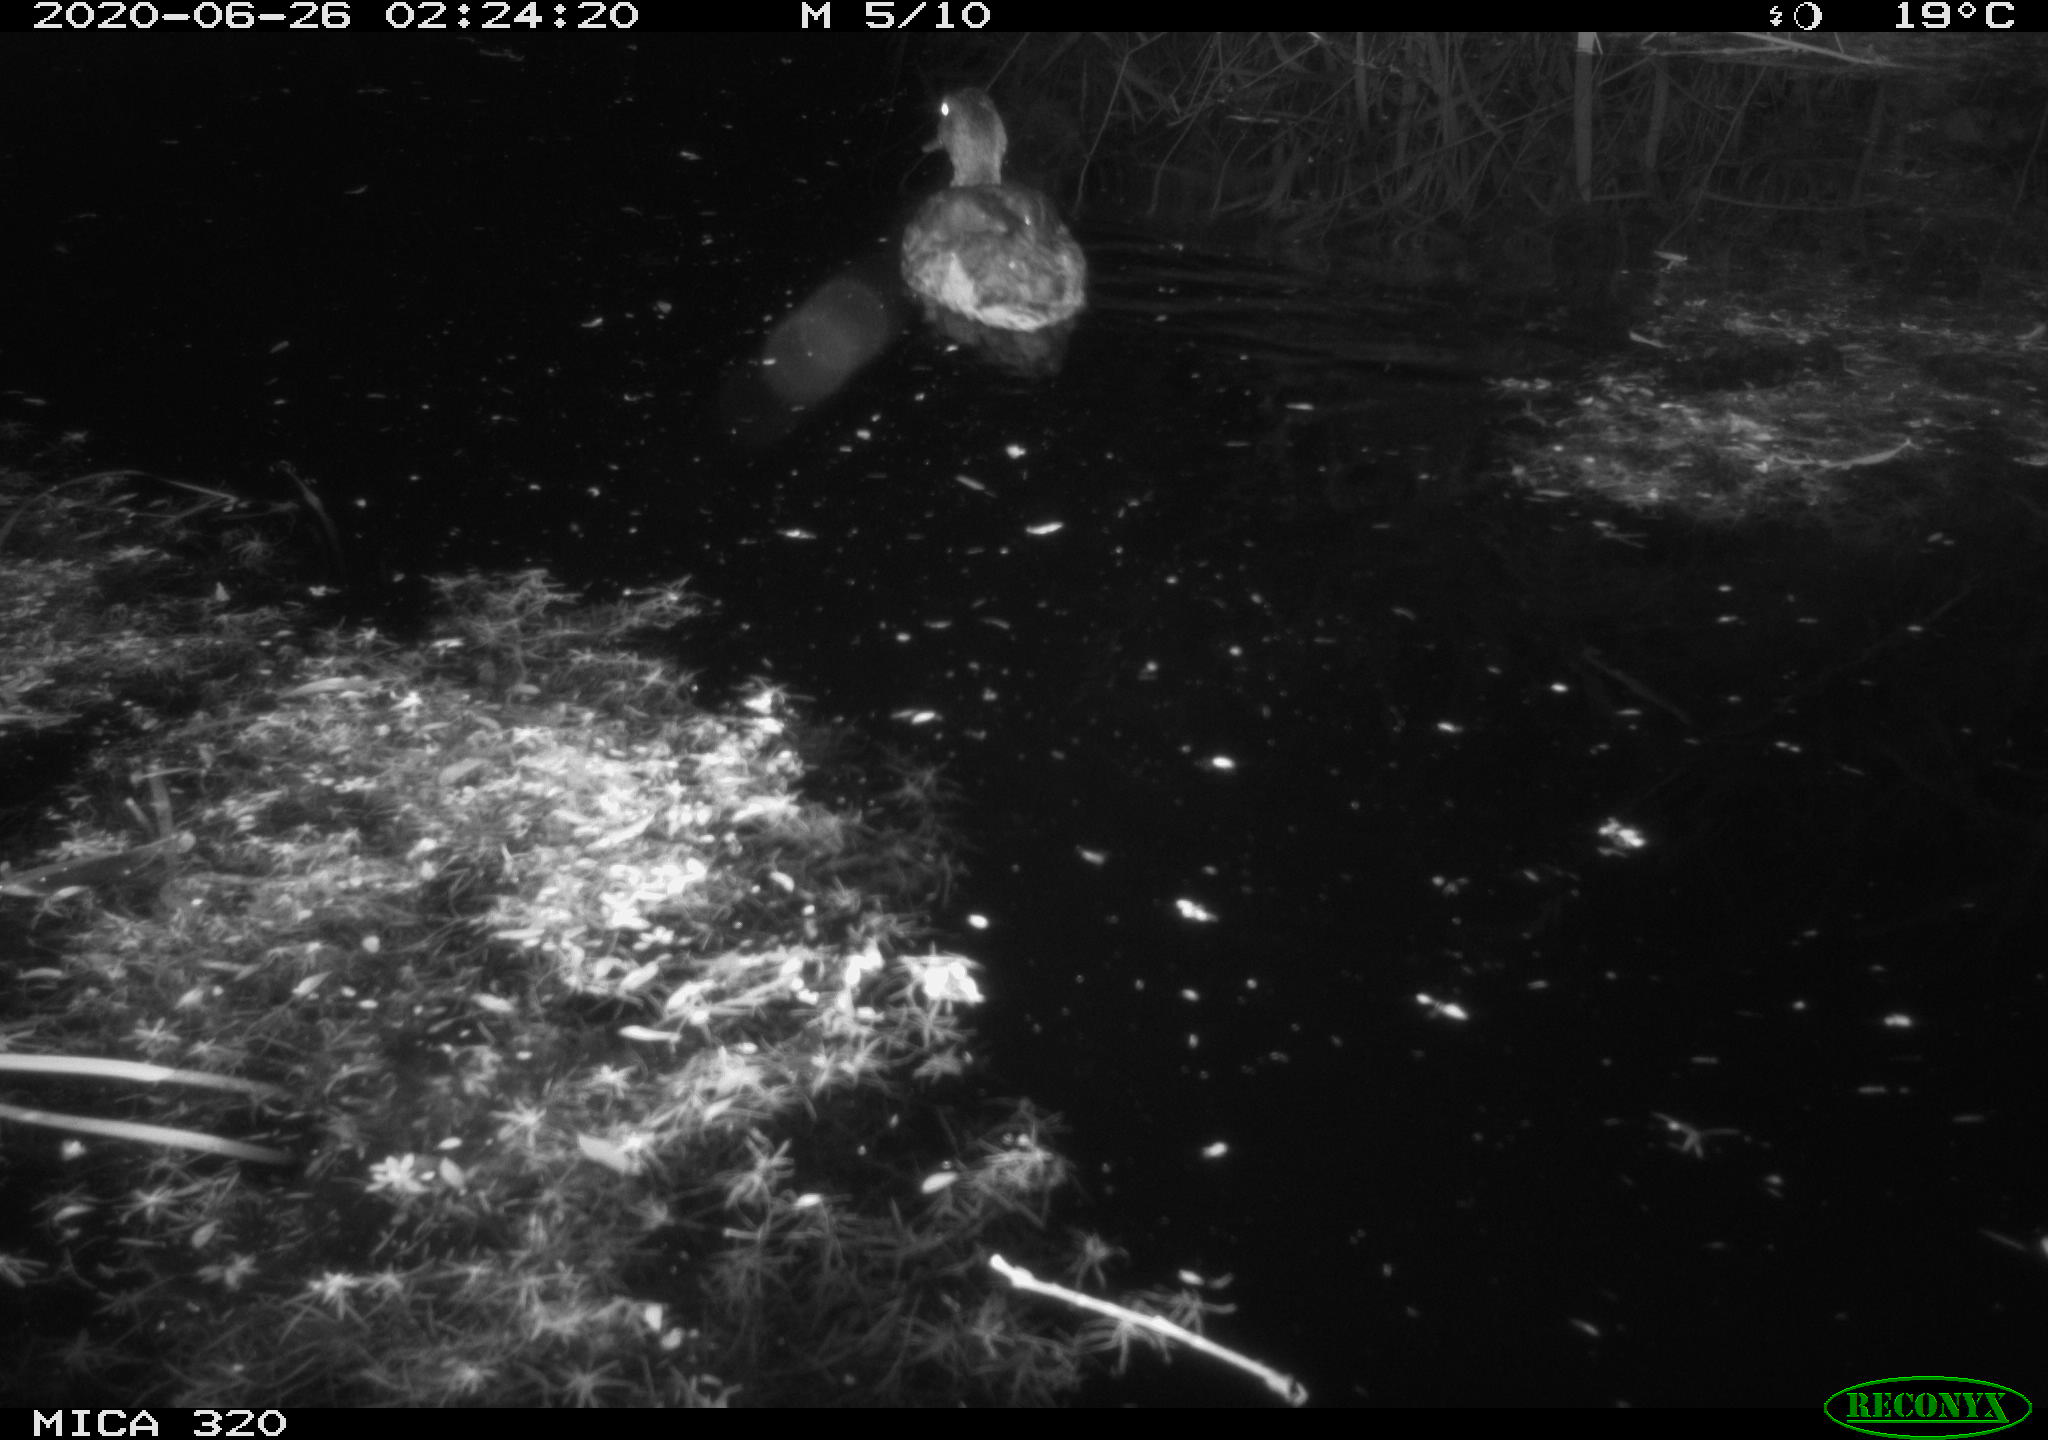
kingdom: Animalia
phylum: Chordata
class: Aves
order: Anseriformes
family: Anatidae
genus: Anas
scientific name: Anas platyrhynchos
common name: Mallard
